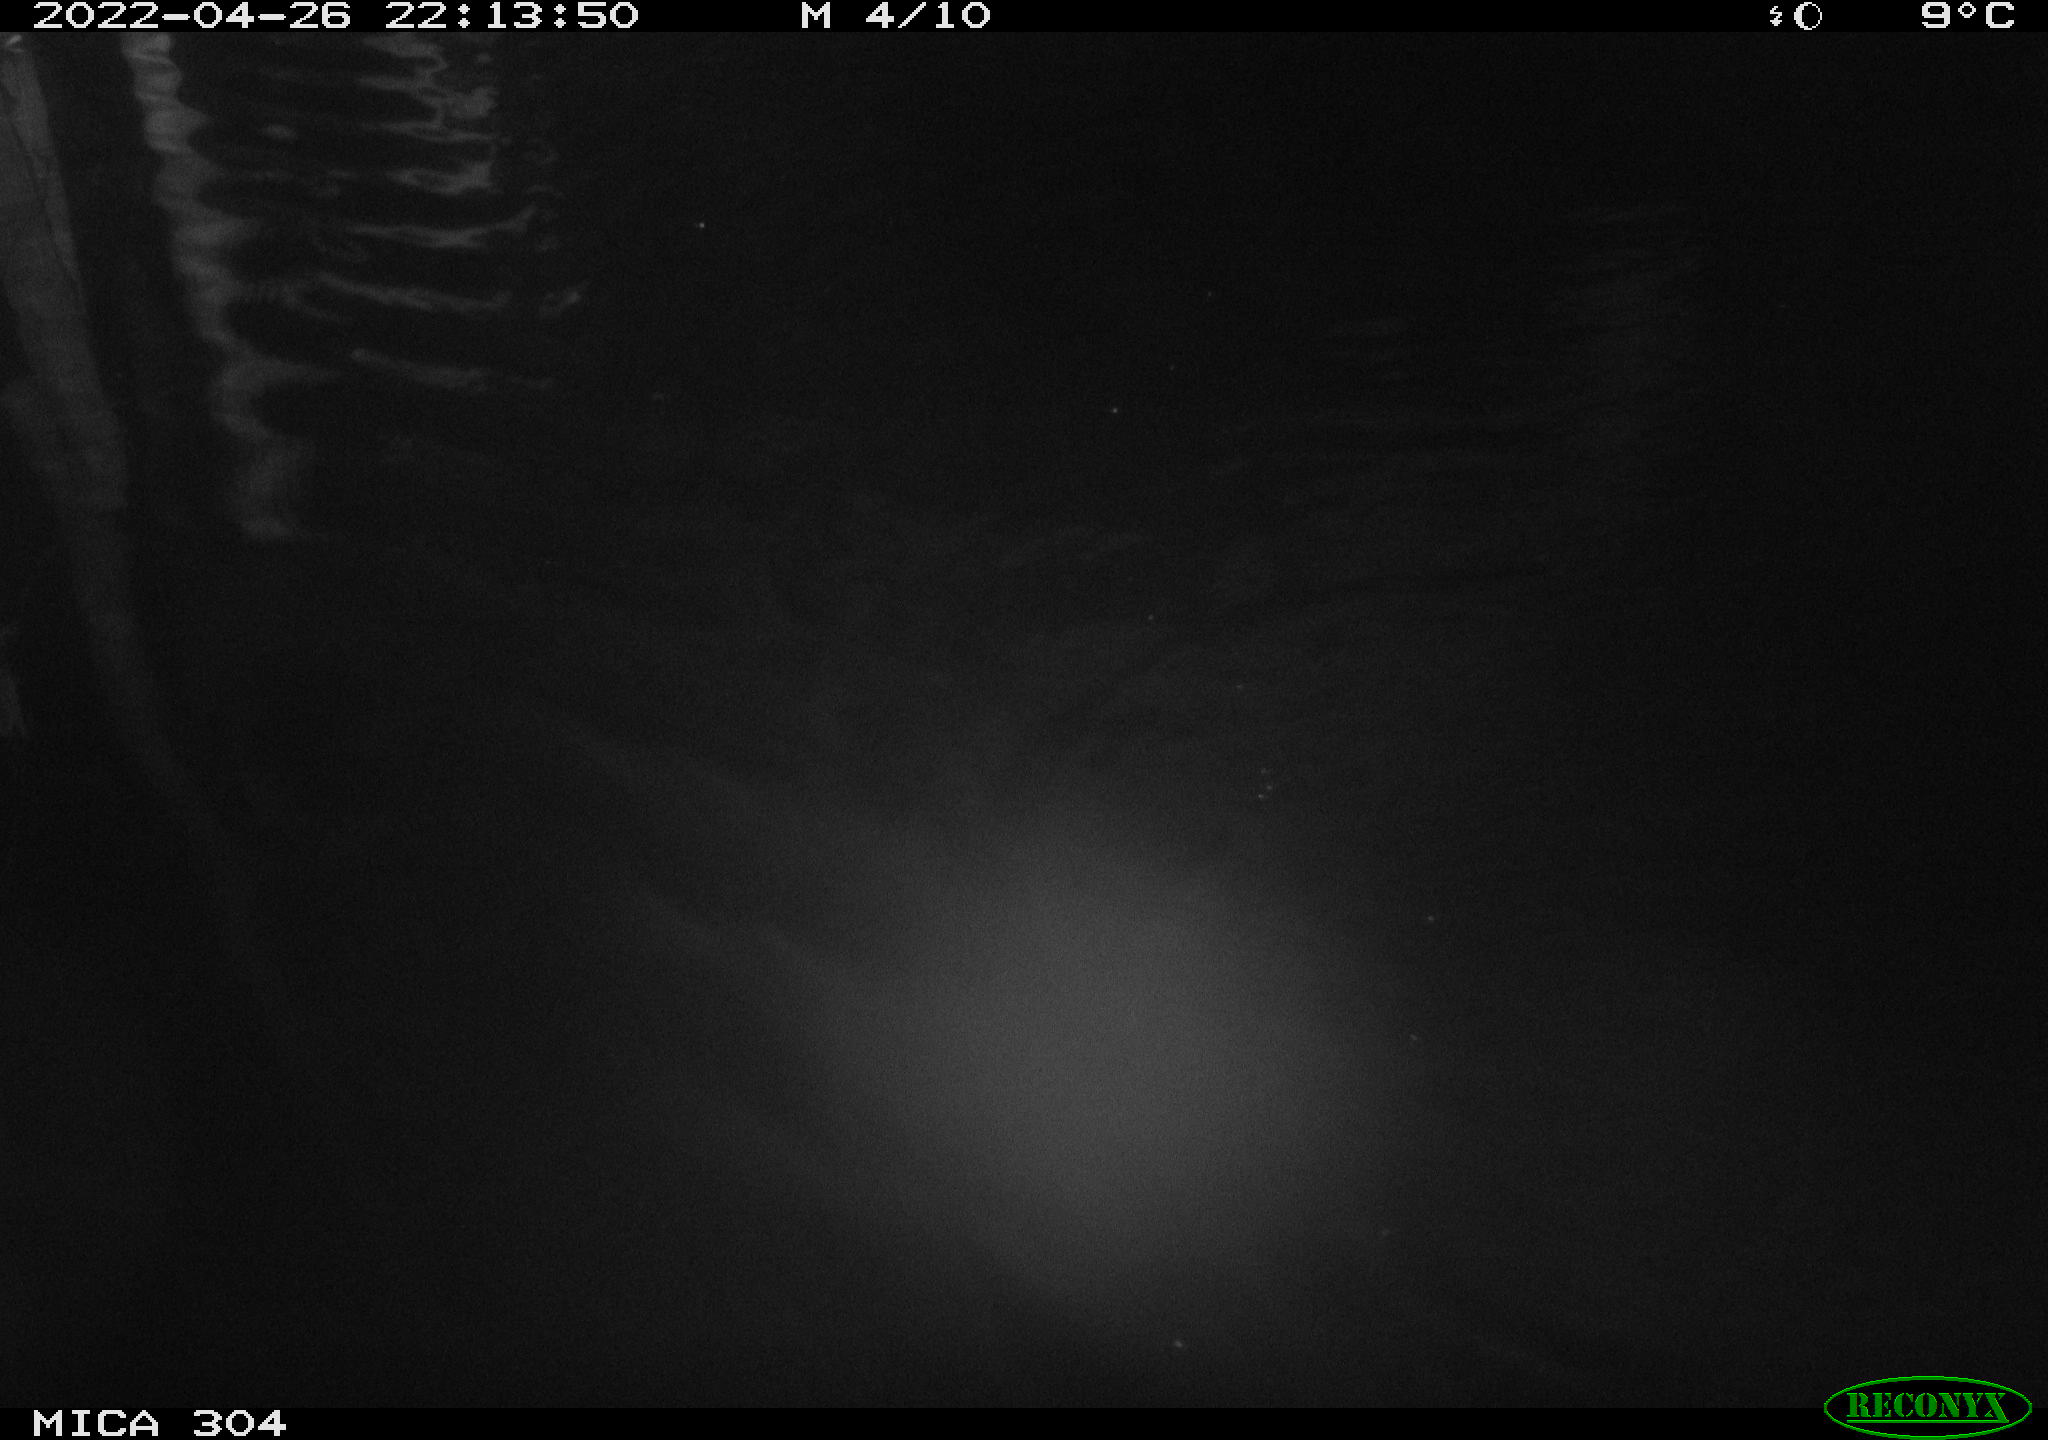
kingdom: Animalia
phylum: Chordata
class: Mammalia
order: Rodentia
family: Cricetidae
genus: Ondatra
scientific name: Ondatra zibethicus
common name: Muskrat
